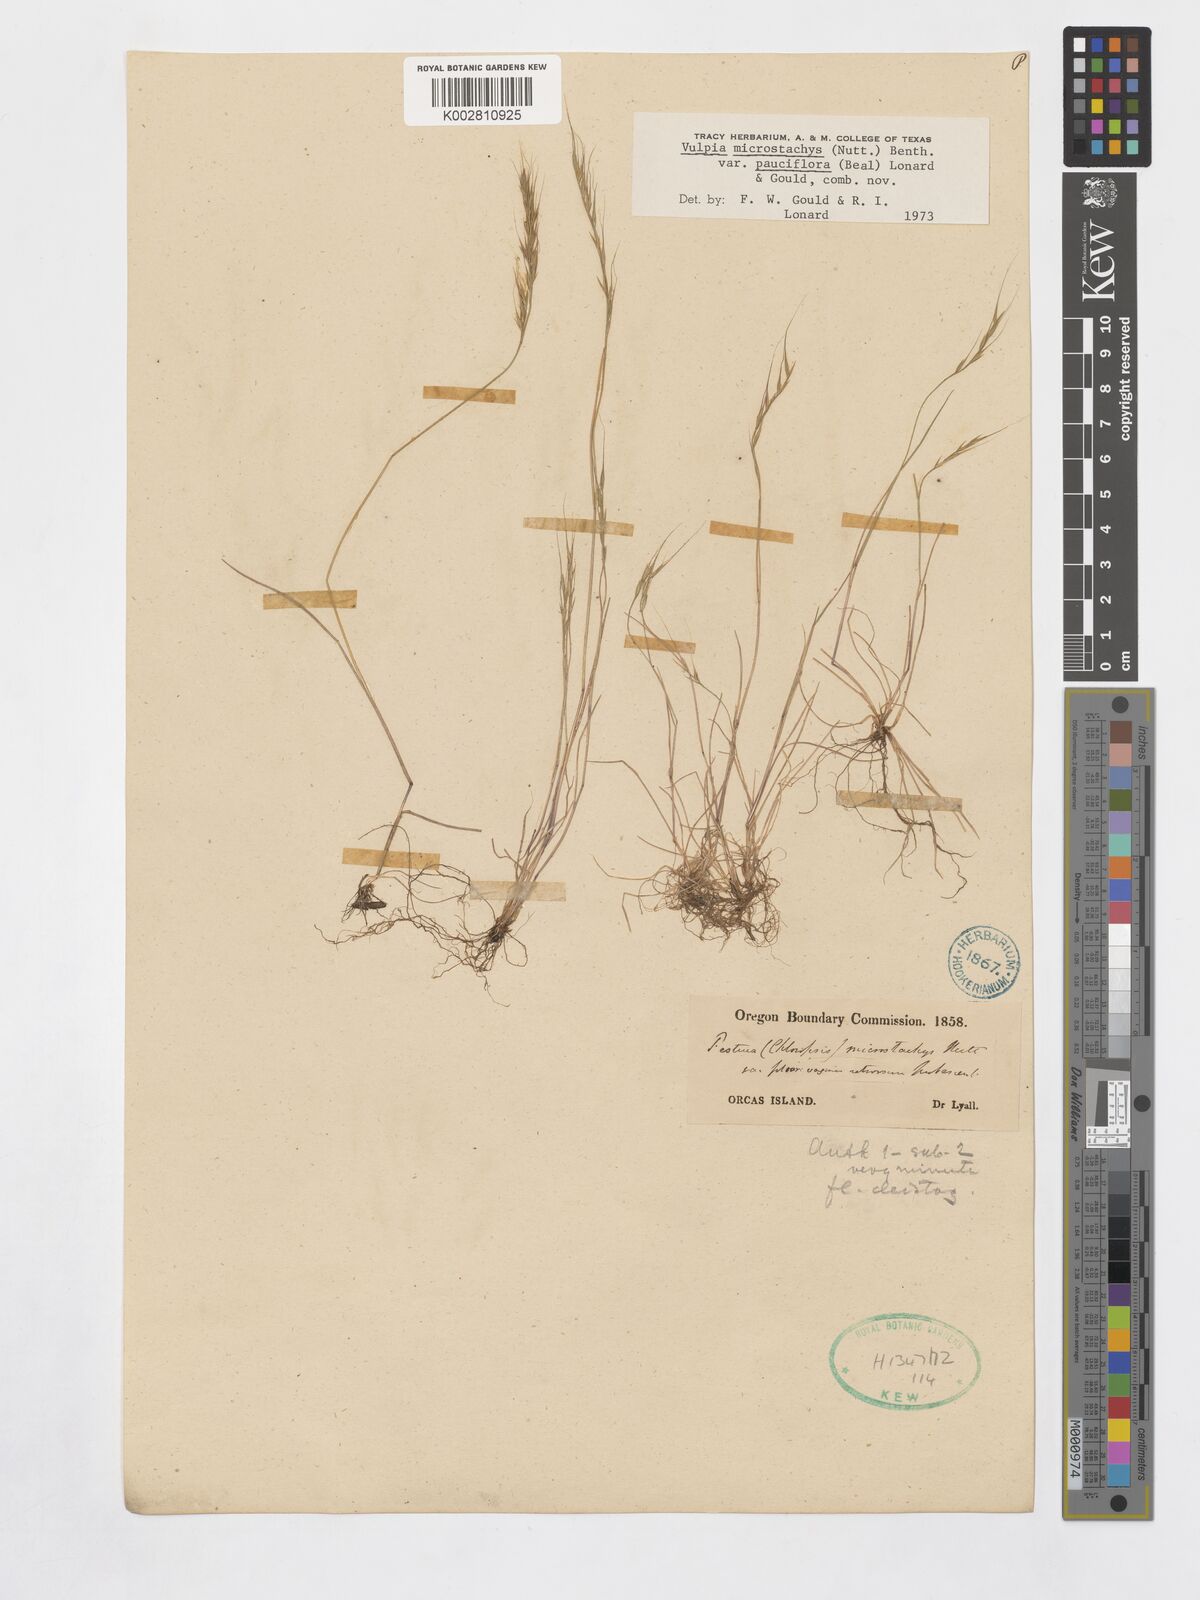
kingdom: Plantae
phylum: Tracheophyta
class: Liliopsida
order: Poales
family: Poaceae
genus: Festuca
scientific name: Festuca microstachys
